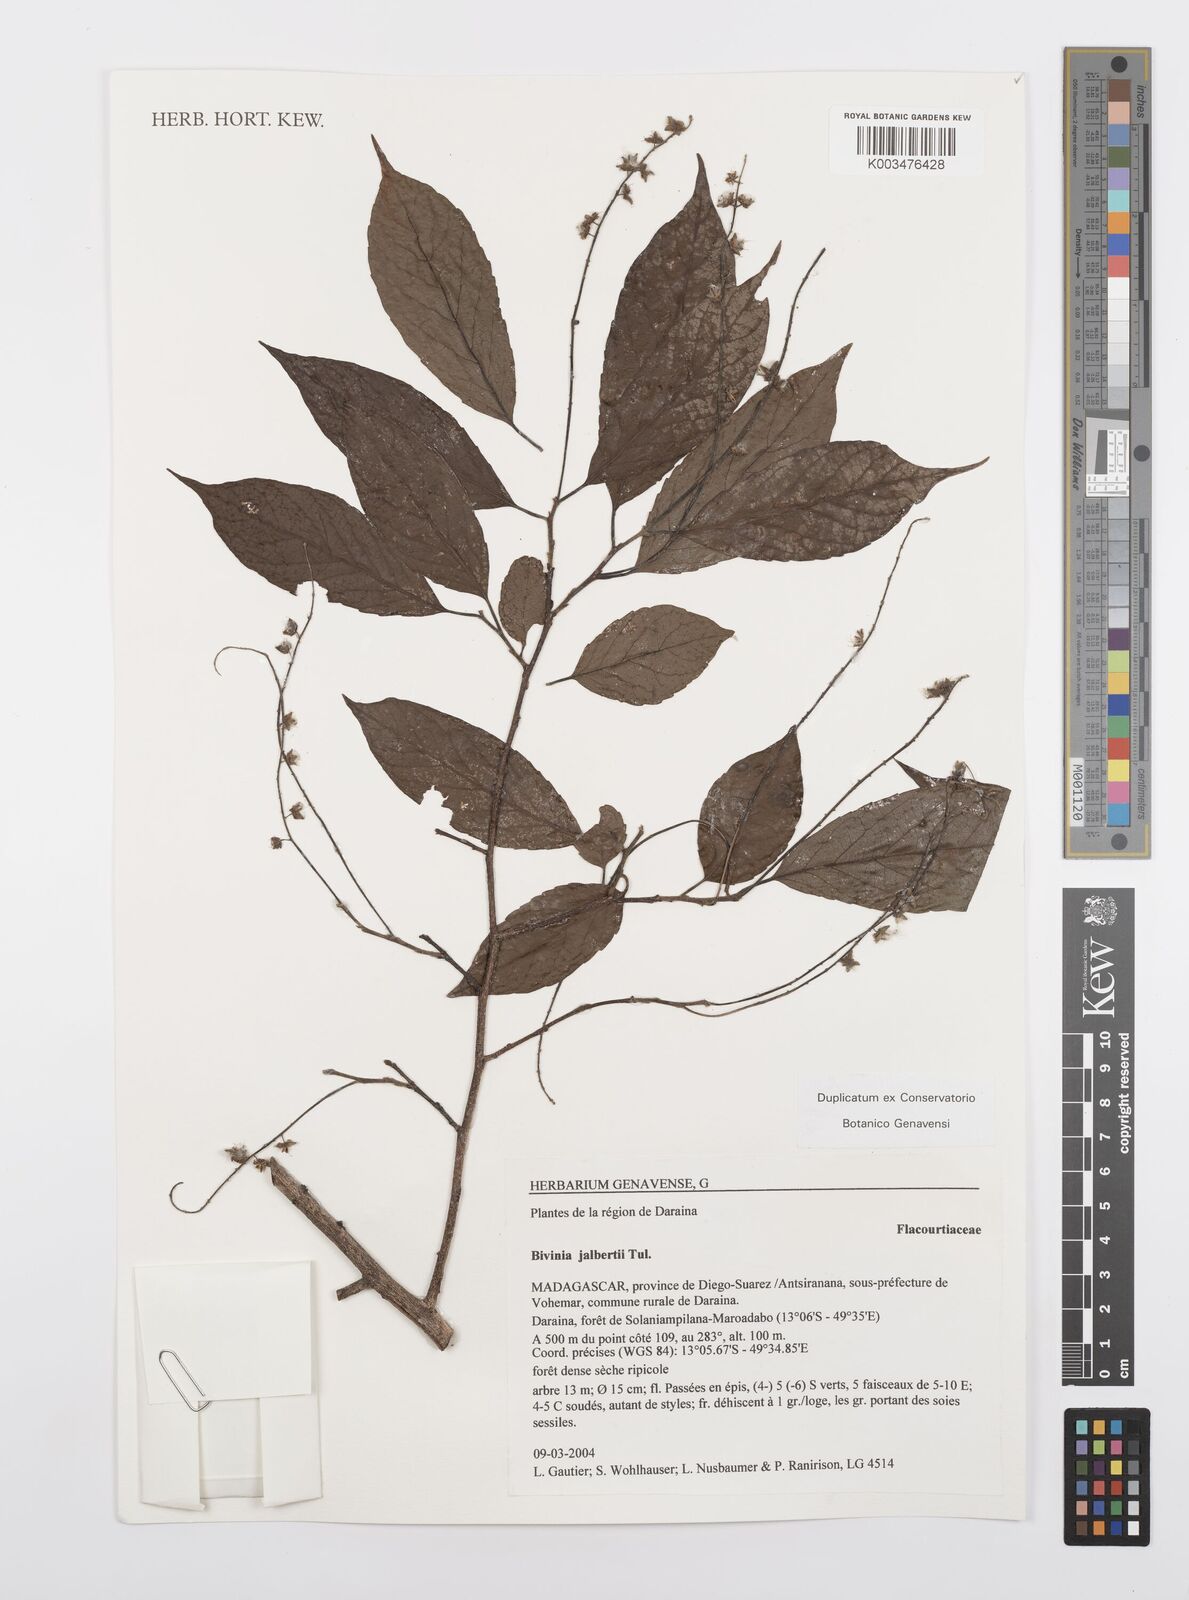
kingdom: Plantae
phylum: Tracheophyta
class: Magnoliopsida
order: Malpighiales
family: Salicaceae
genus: Bivinia
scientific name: Bivinia jalbertii
